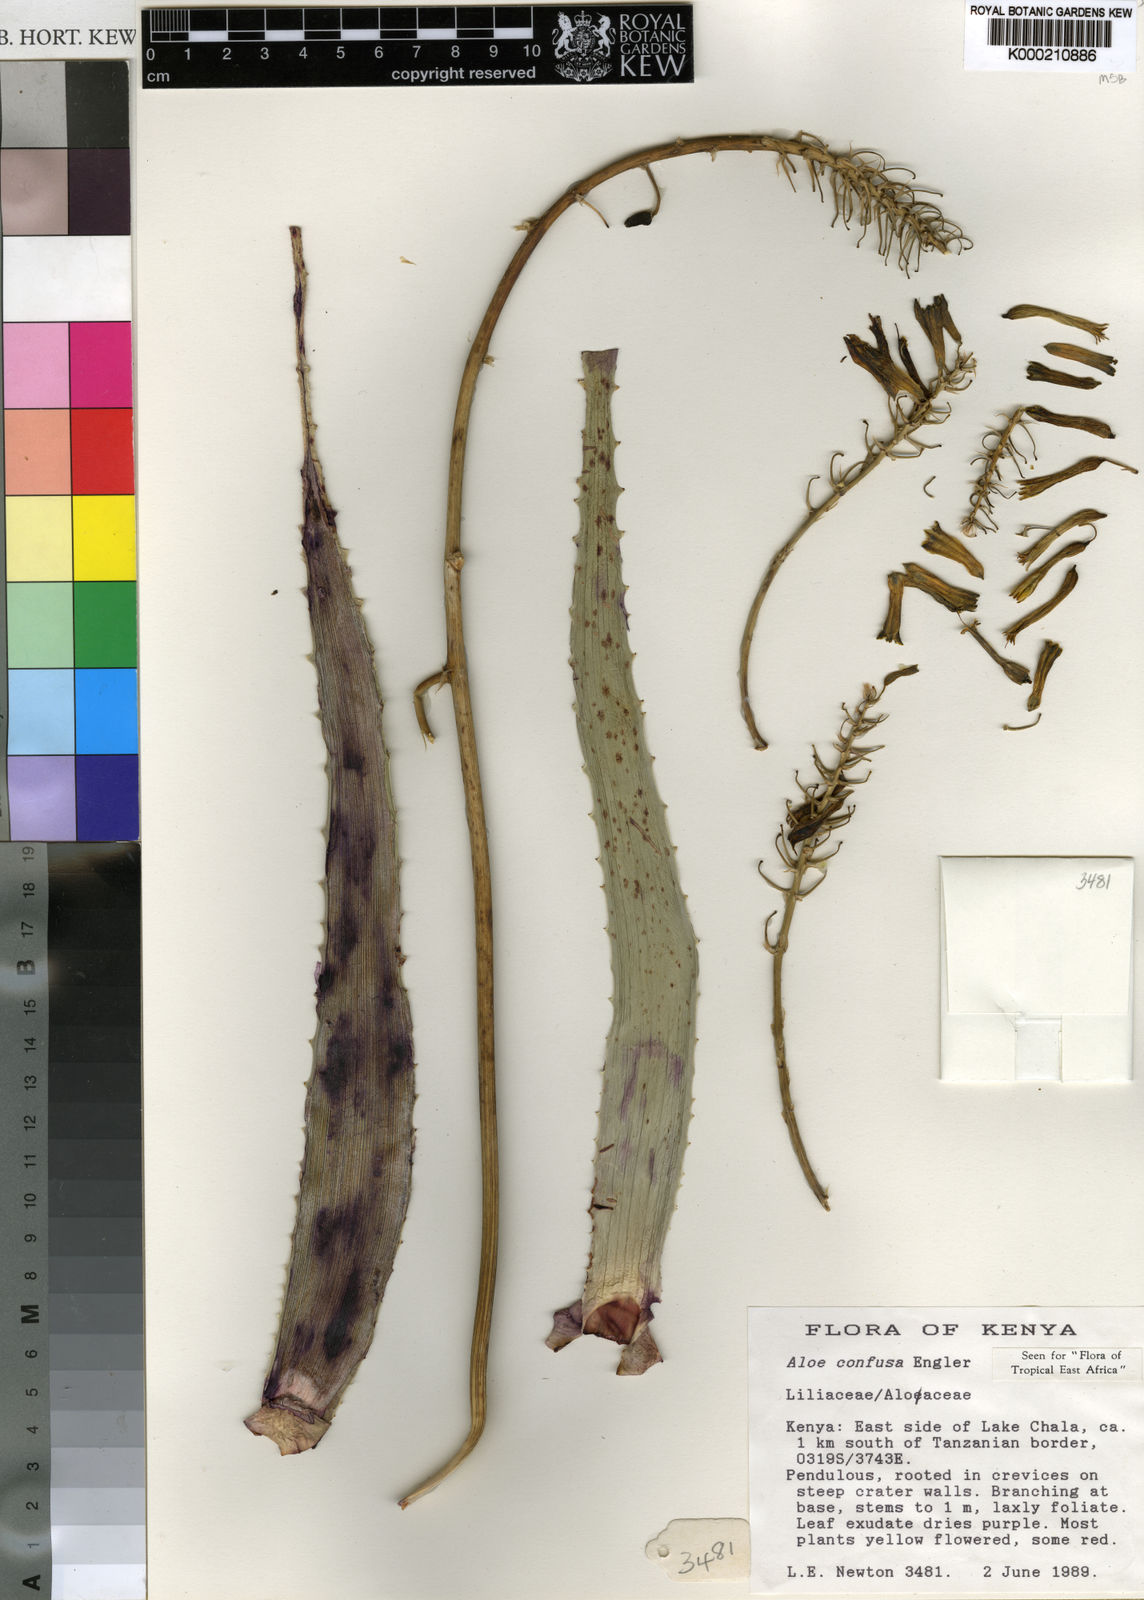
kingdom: Plantae
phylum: Tracheophyta
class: Liliopsida
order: Asparagales
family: Asphodelaceae
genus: Aloe
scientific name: Aloe confusa
